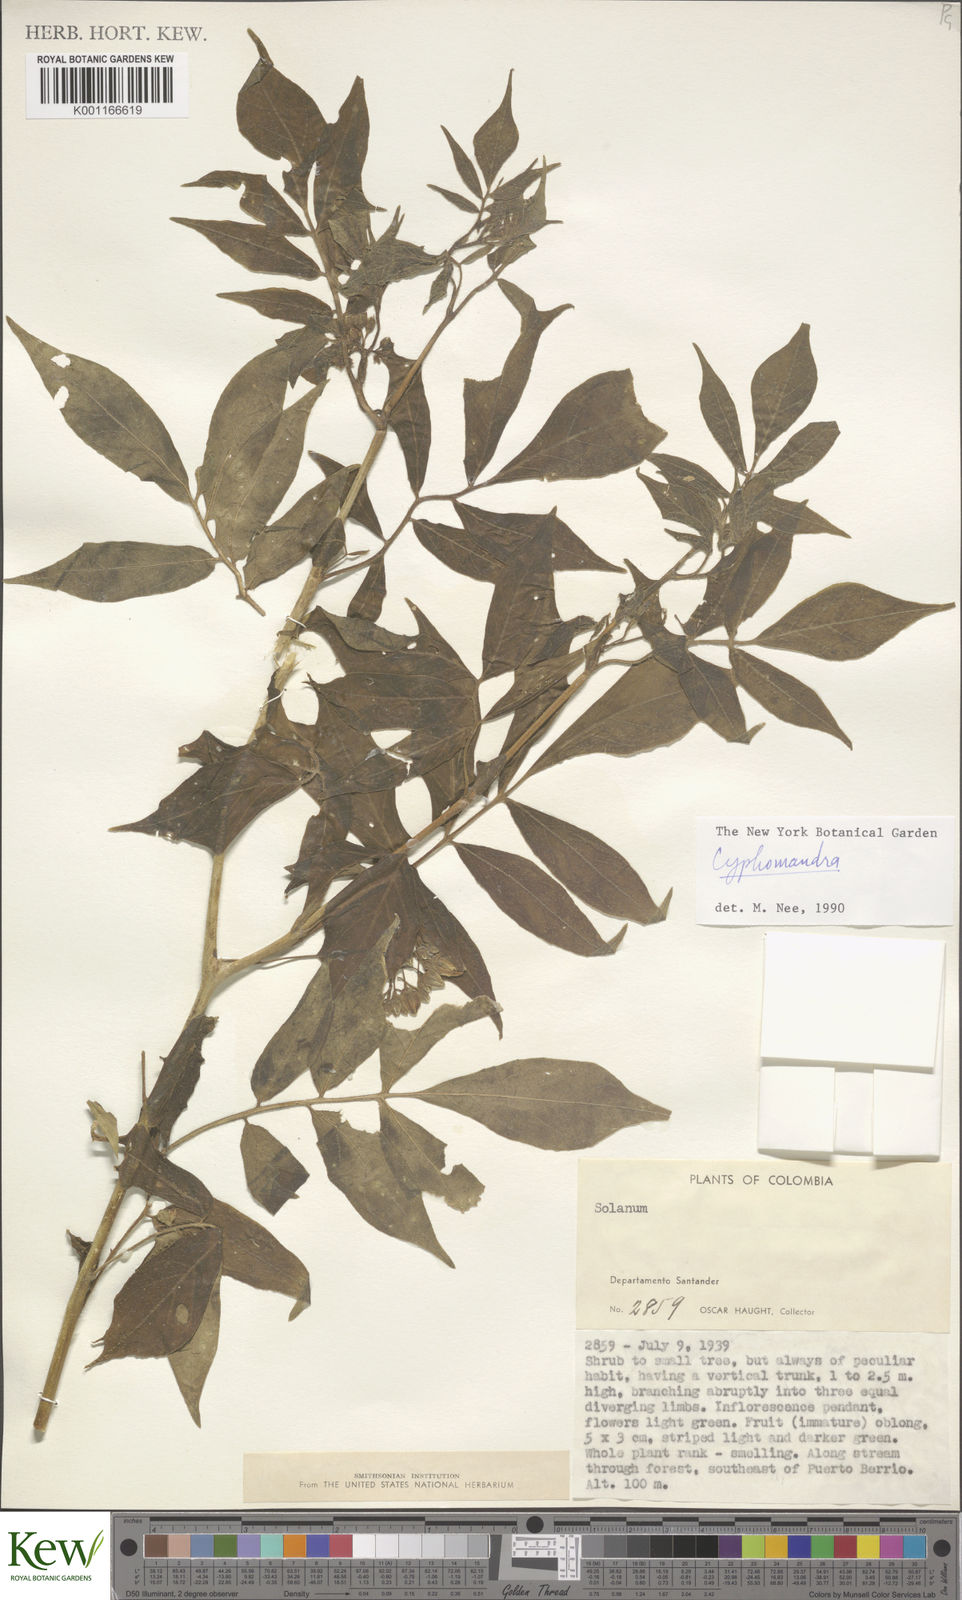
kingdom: Plantae
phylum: Tracheophyta
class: Magnoliopsida
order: Solanales
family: Solanaceae
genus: Solanum
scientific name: Solanum
